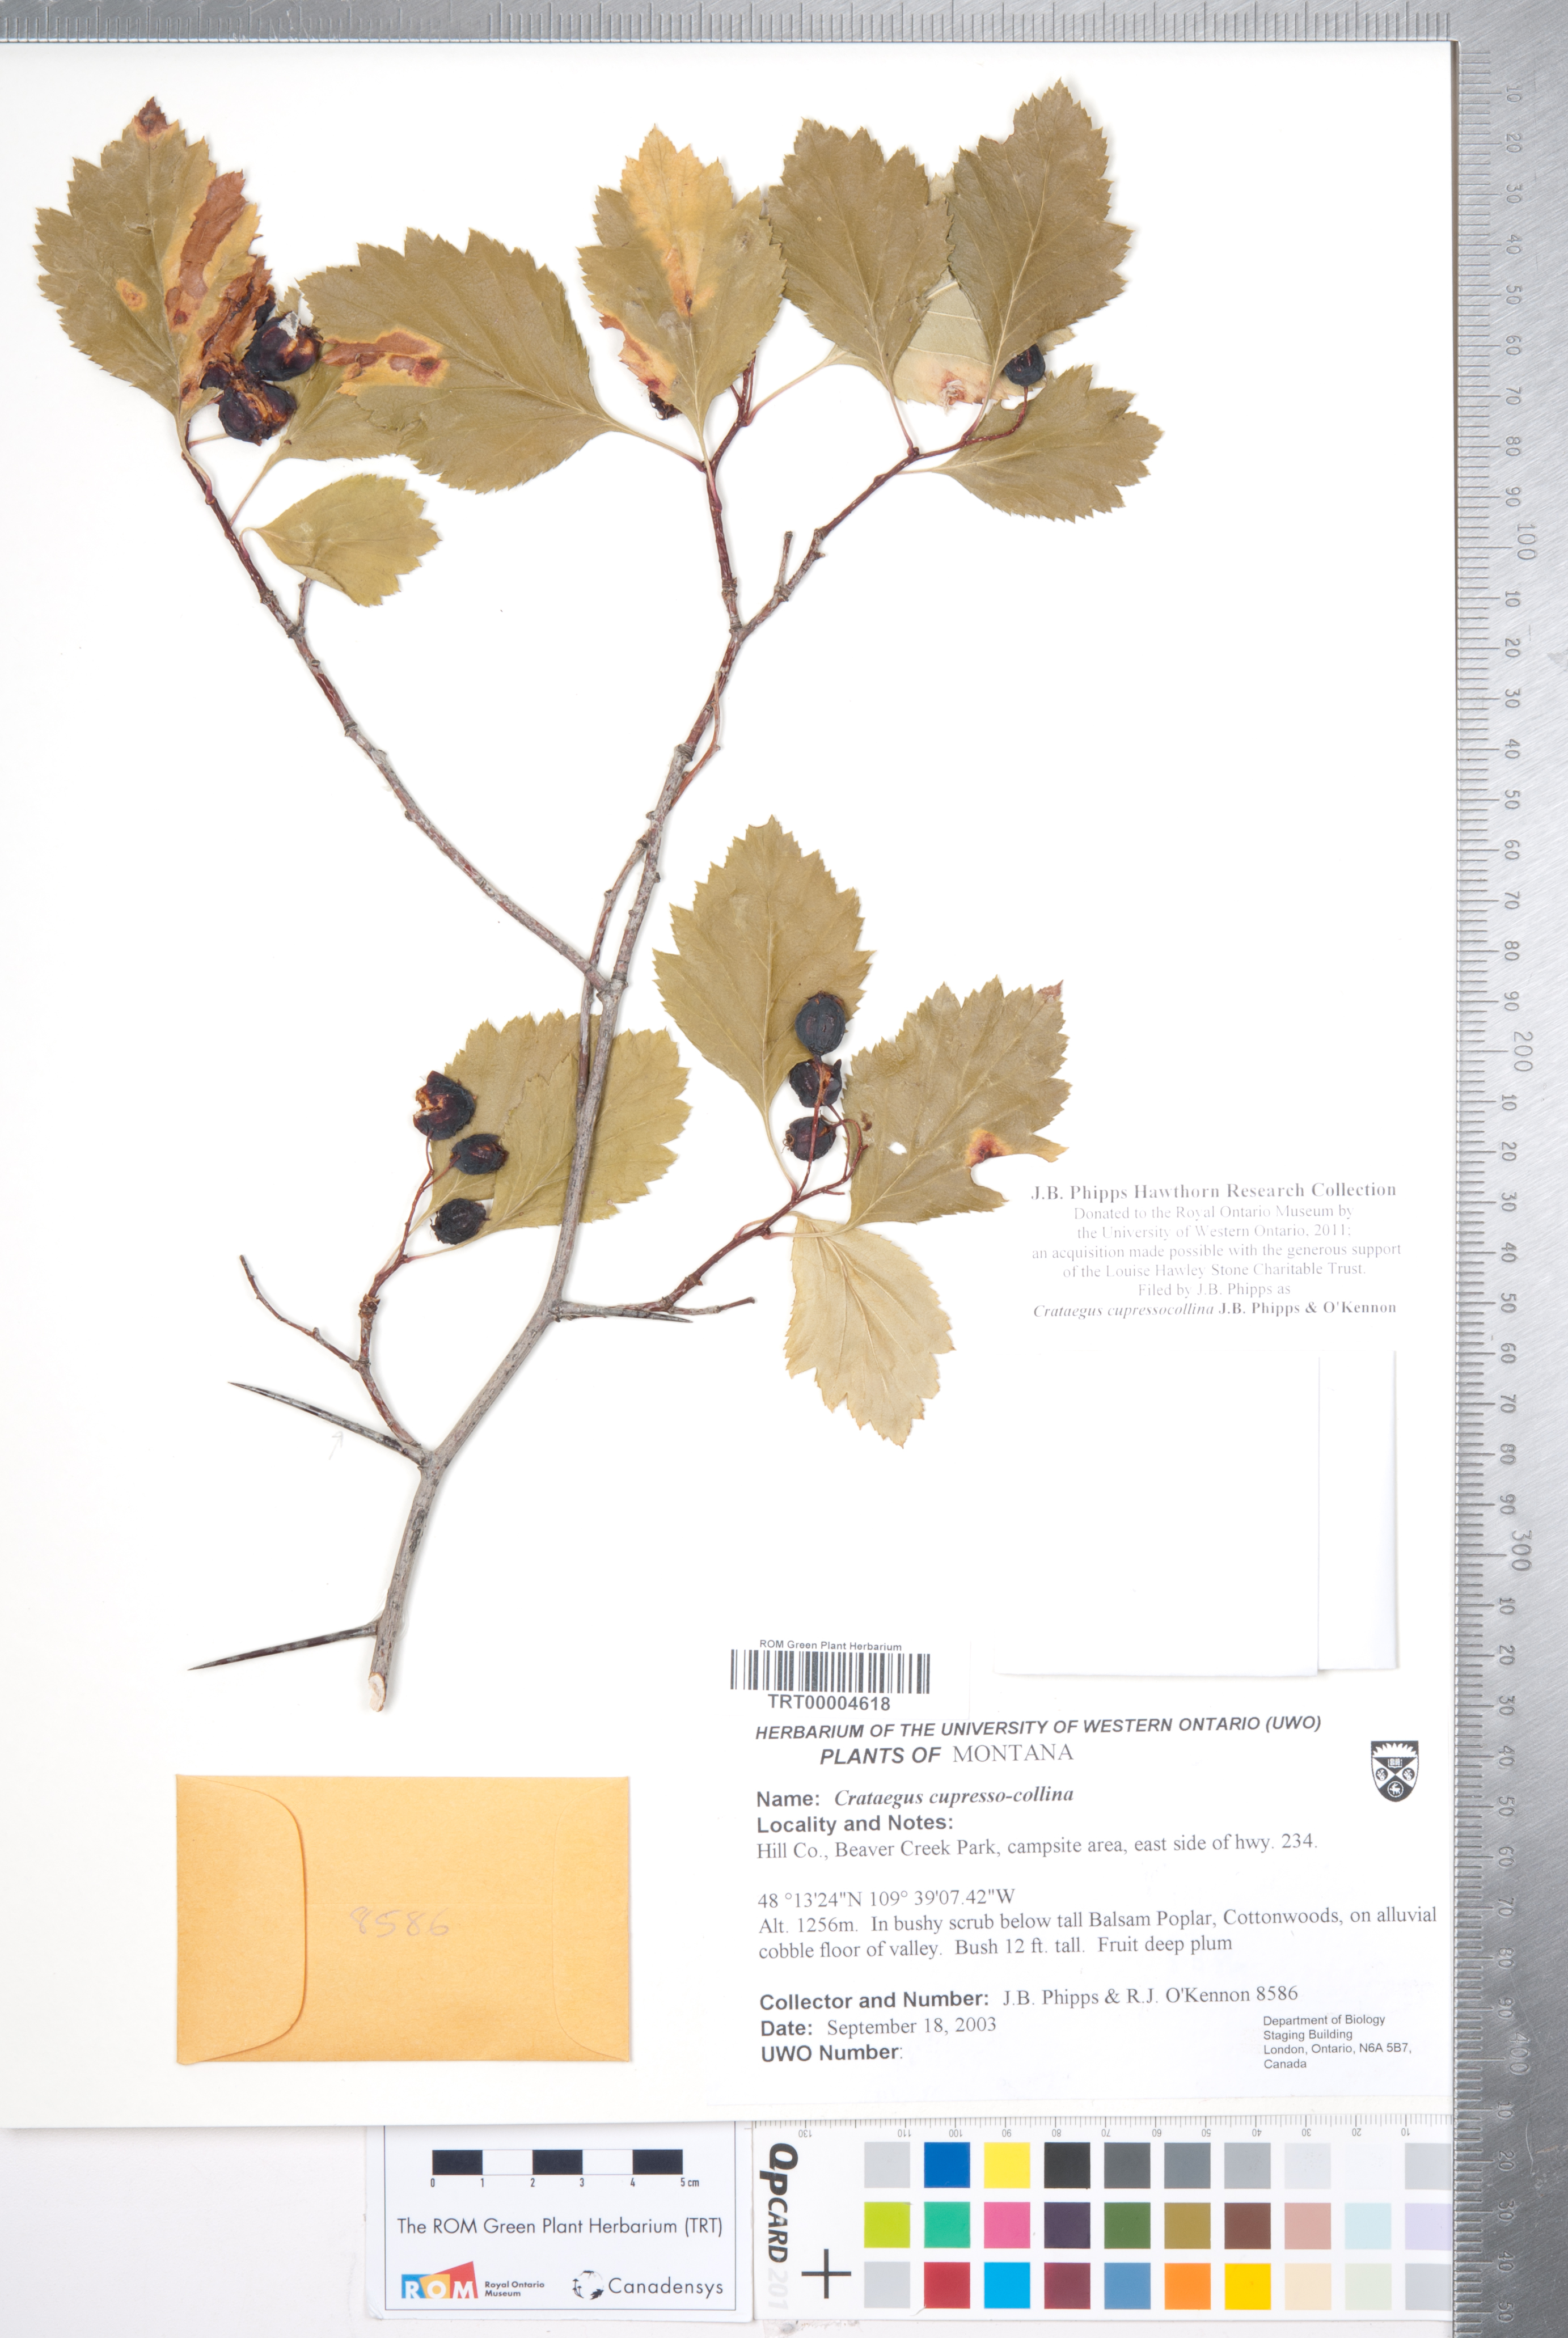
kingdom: Plantae
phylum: Tracheophyta
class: Magnoliopsida
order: Rosales
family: Rosaceae
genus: Crataegus
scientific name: Crataegus cupressocollina
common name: Cypress hills hawthorn
